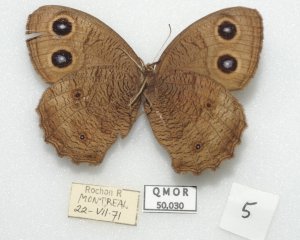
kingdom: Animalia
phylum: Arthropoda
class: Insecta
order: Lepidoptera
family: Nymphalidae
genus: Cercyonis
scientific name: Cercyonis pegala
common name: Common Wood-Nymph
